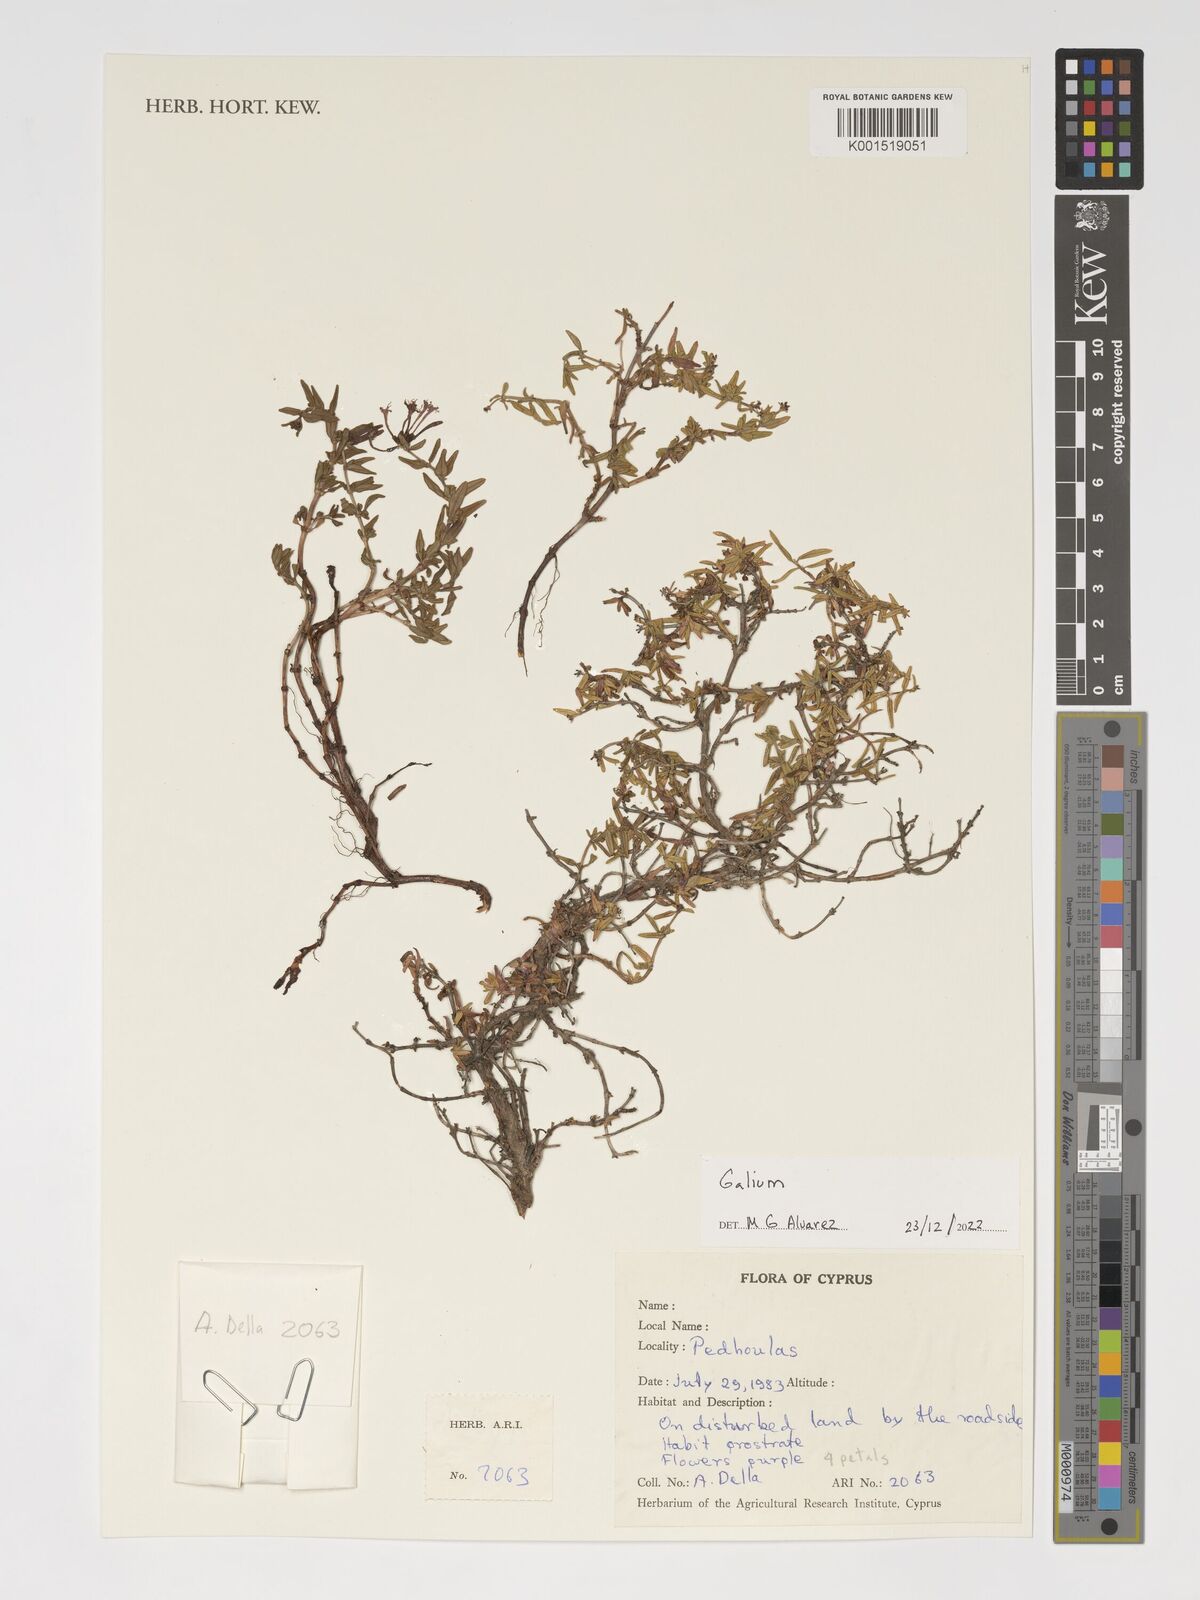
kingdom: Plantae
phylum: Tracheophyta
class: Magnoliopsida
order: Gentianales
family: Rubiaceae
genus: Galium
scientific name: Galium
